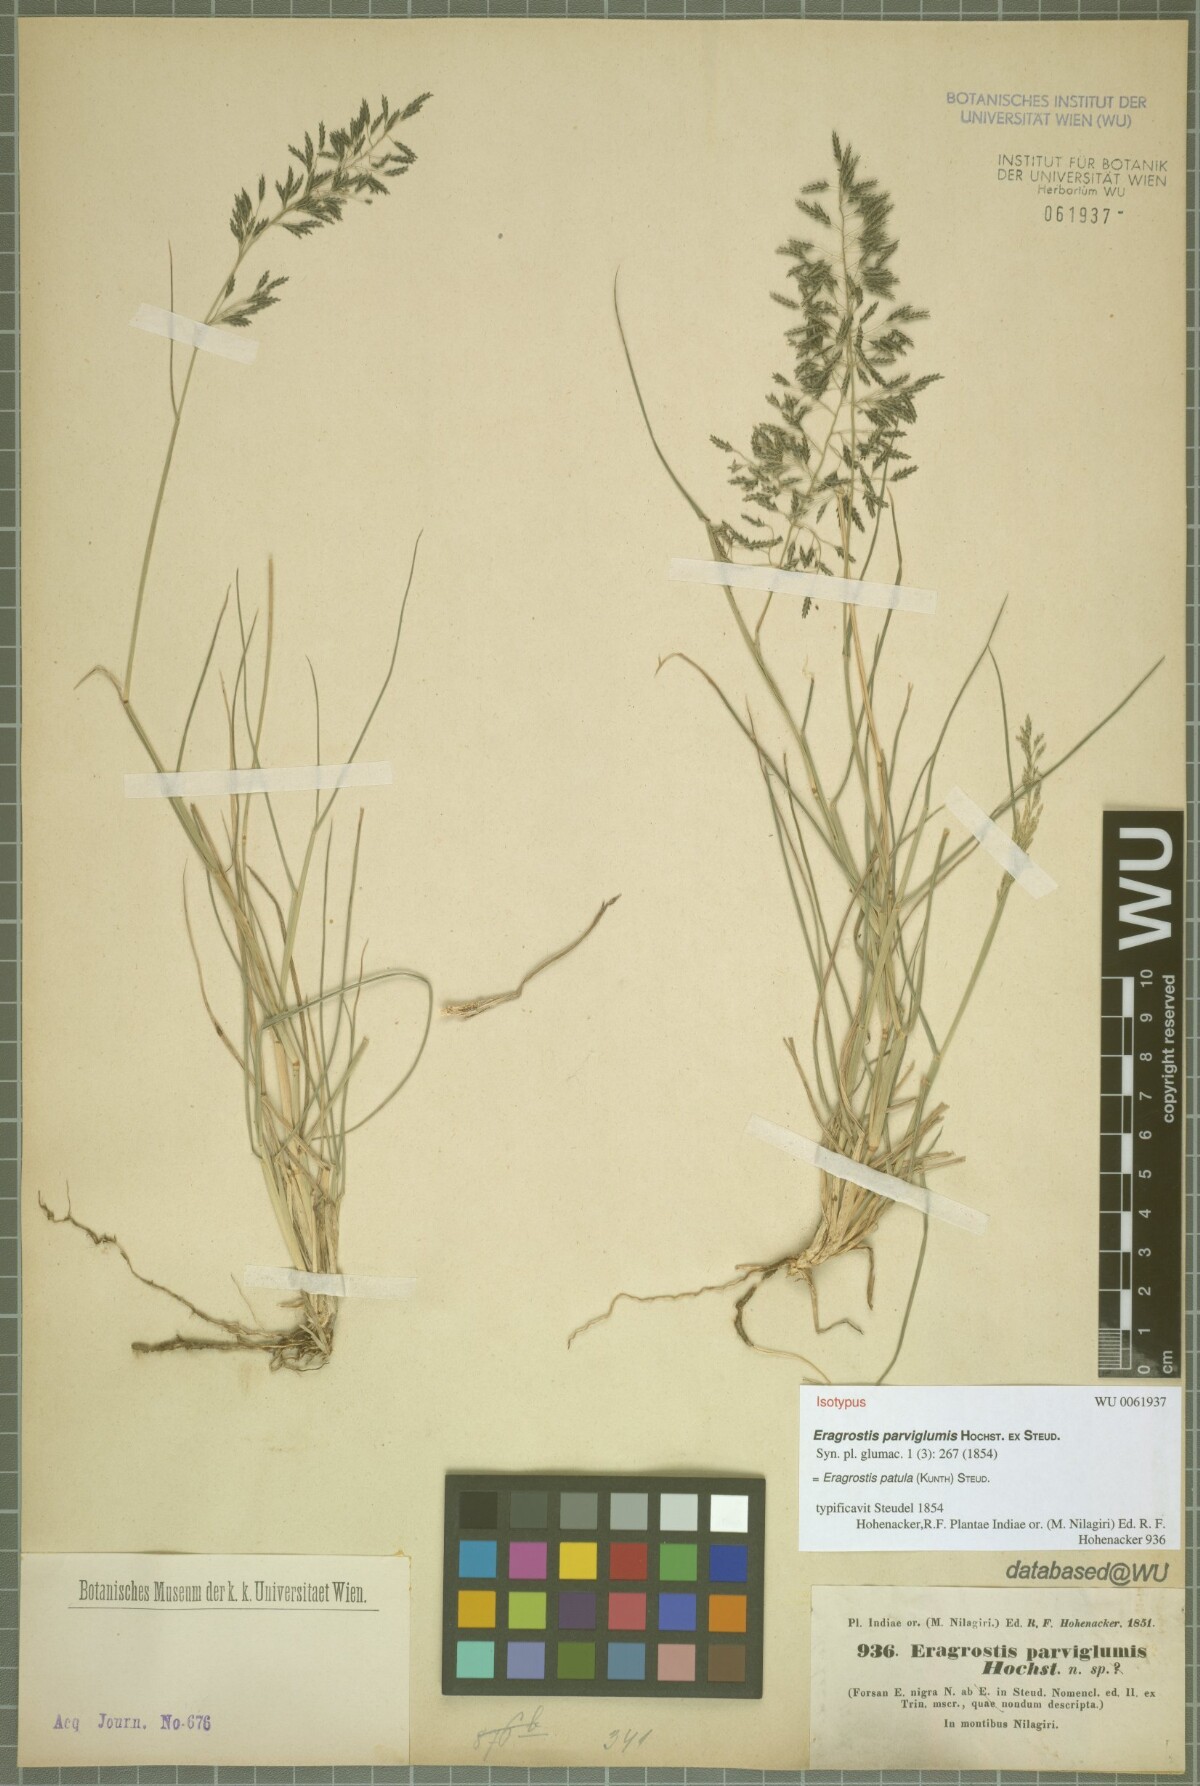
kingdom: Plantae
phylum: Tracheophyta
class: Liliopsida
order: Poales
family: Poaceae
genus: Eragrostis
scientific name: Eragrostis tenuifolia
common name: Elastic grass
